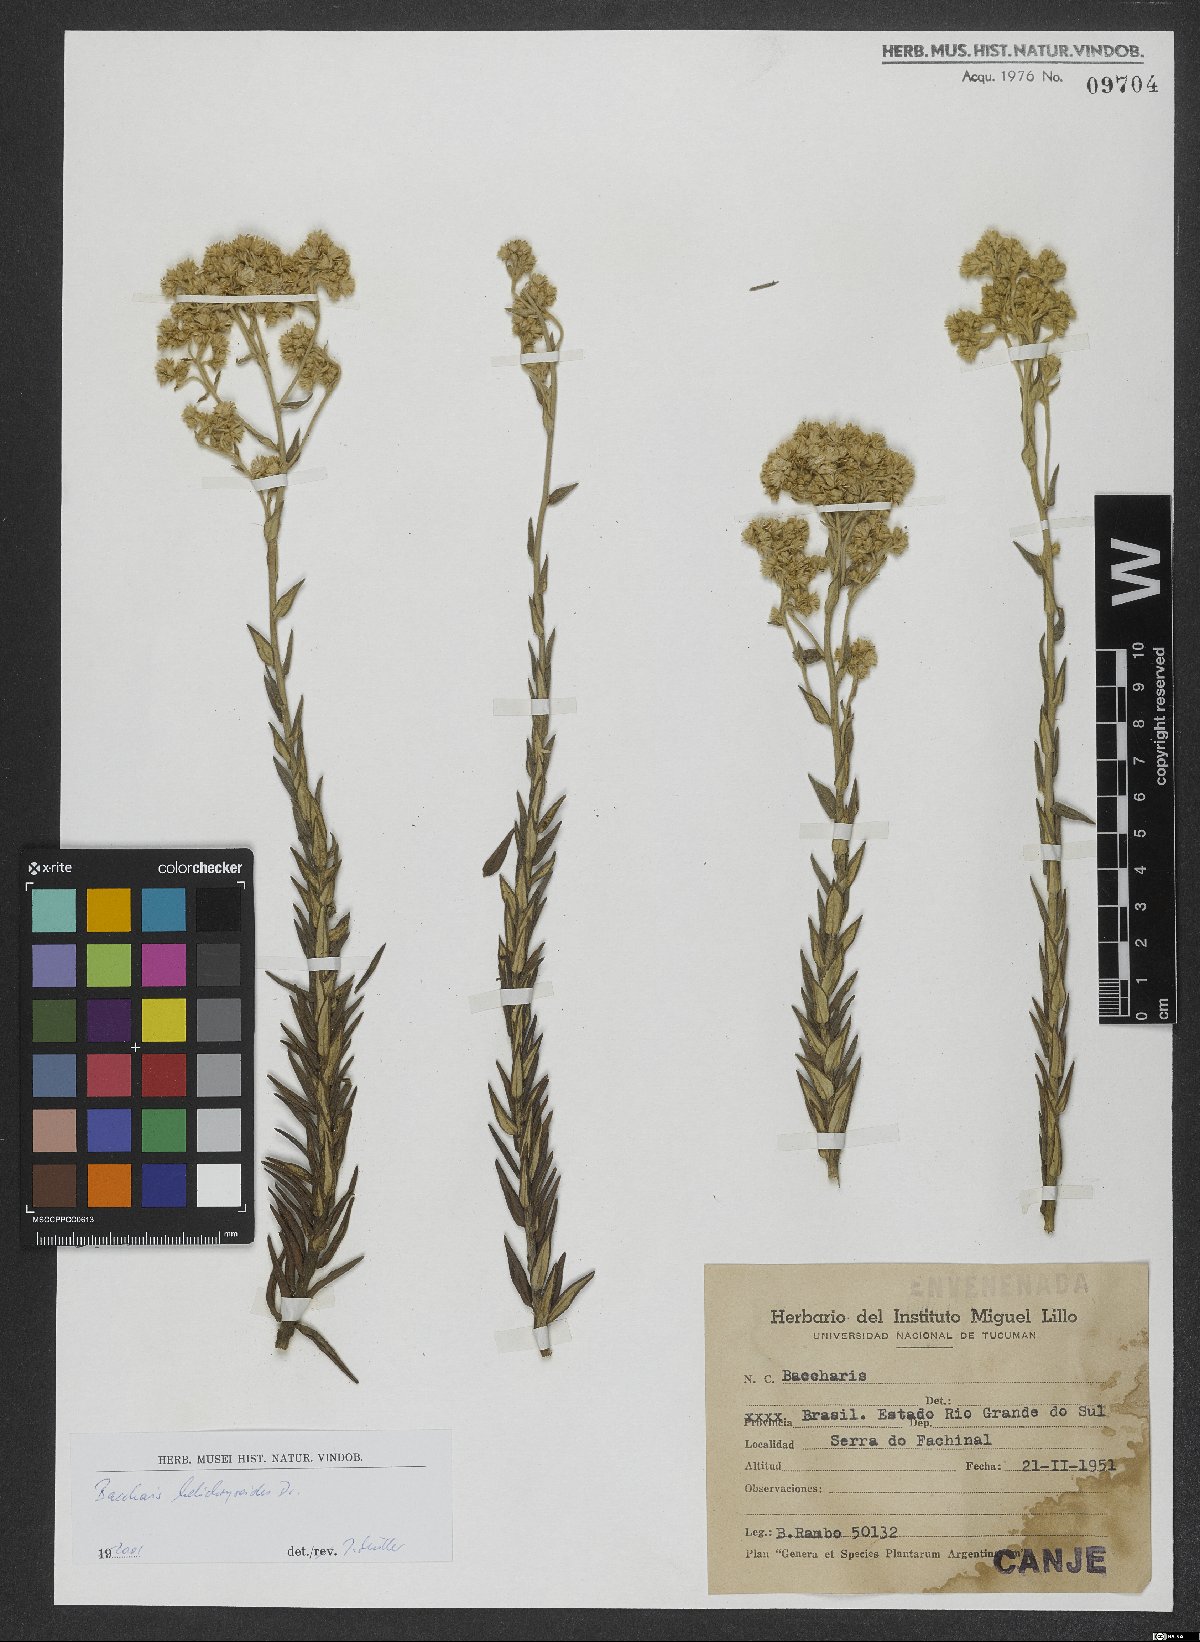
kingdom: Plantae
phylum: Tracheophyta
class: Magnoliopsida
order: Asterales
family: Asteraceae
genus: Baccharis
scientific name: Baccharis helichrysoides
